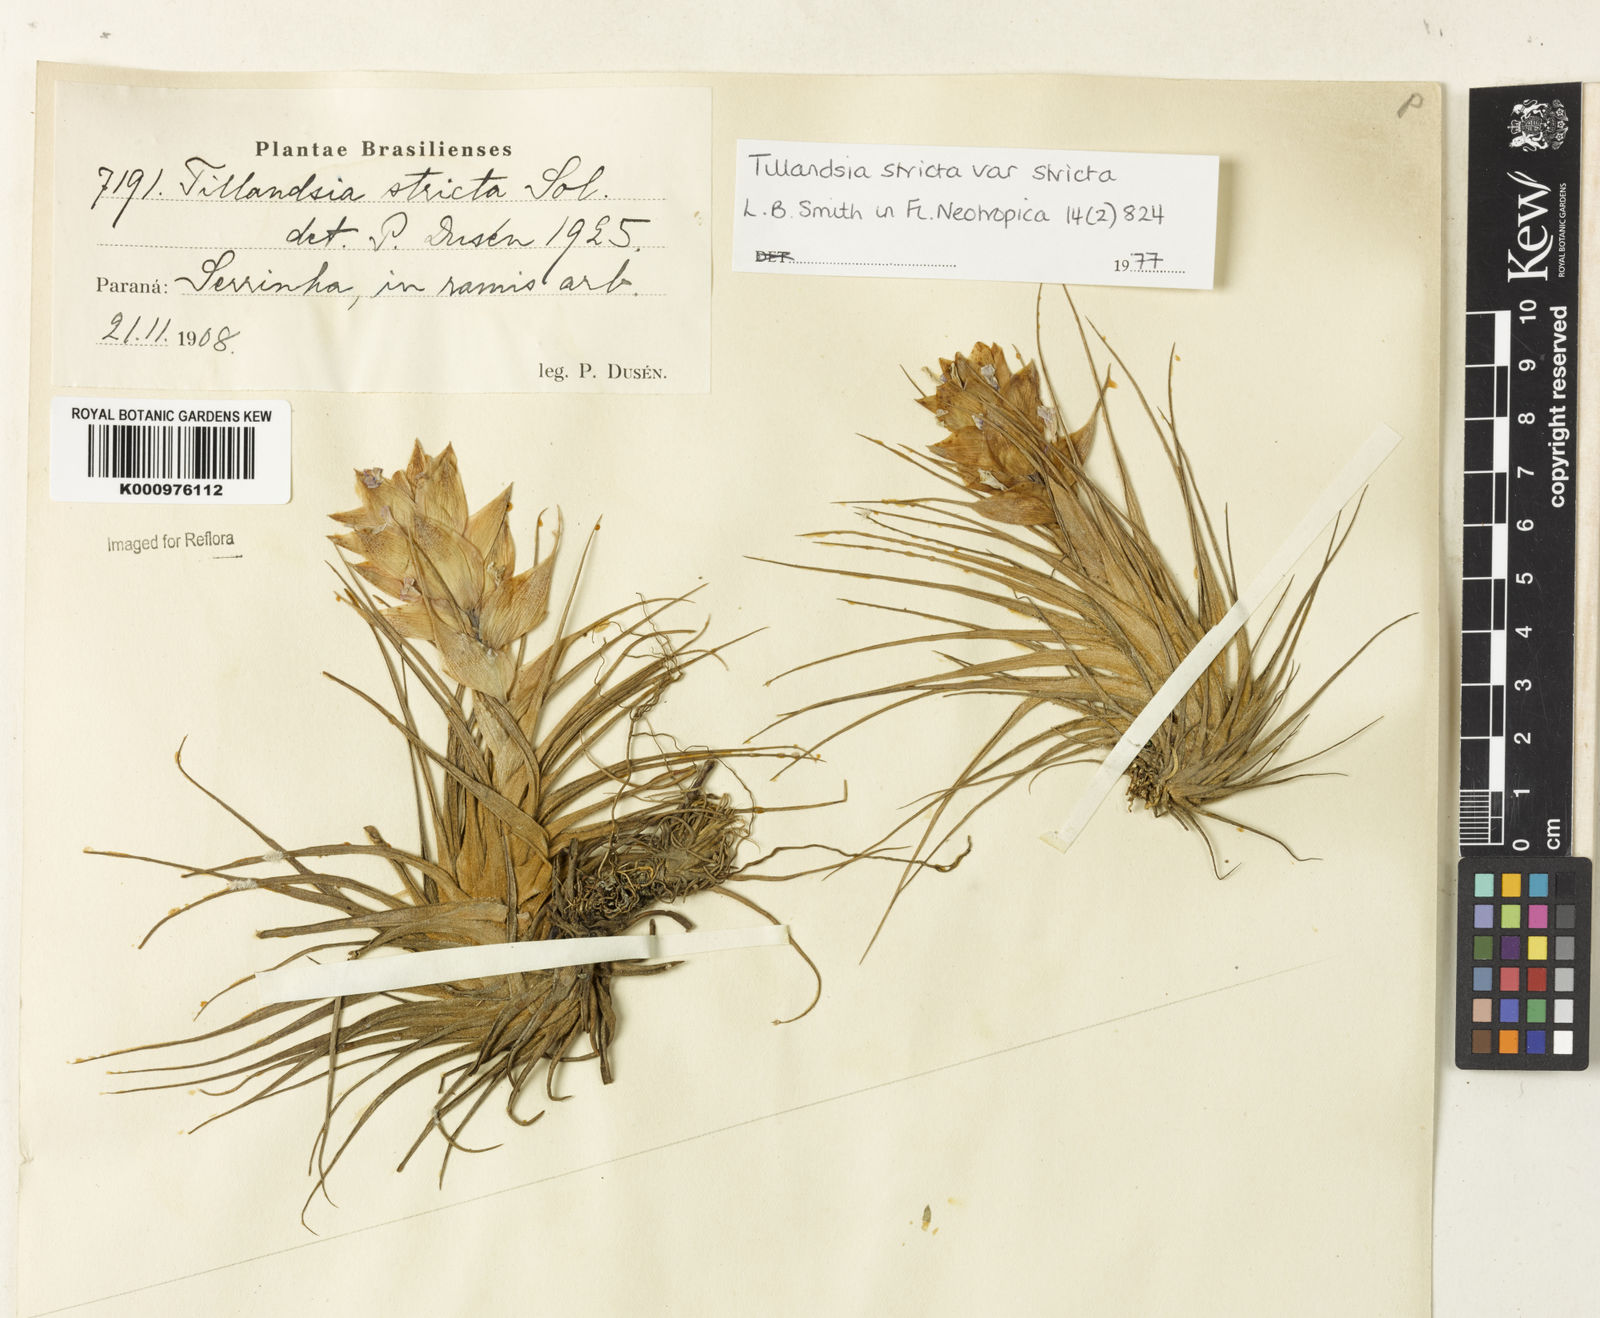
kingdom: Plantae
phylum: Tracheophyta
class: Liliopsida
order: Poales
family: Bromeliaceae
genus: Tillandsia
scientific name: Tillandsia stricta
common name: Airplant
